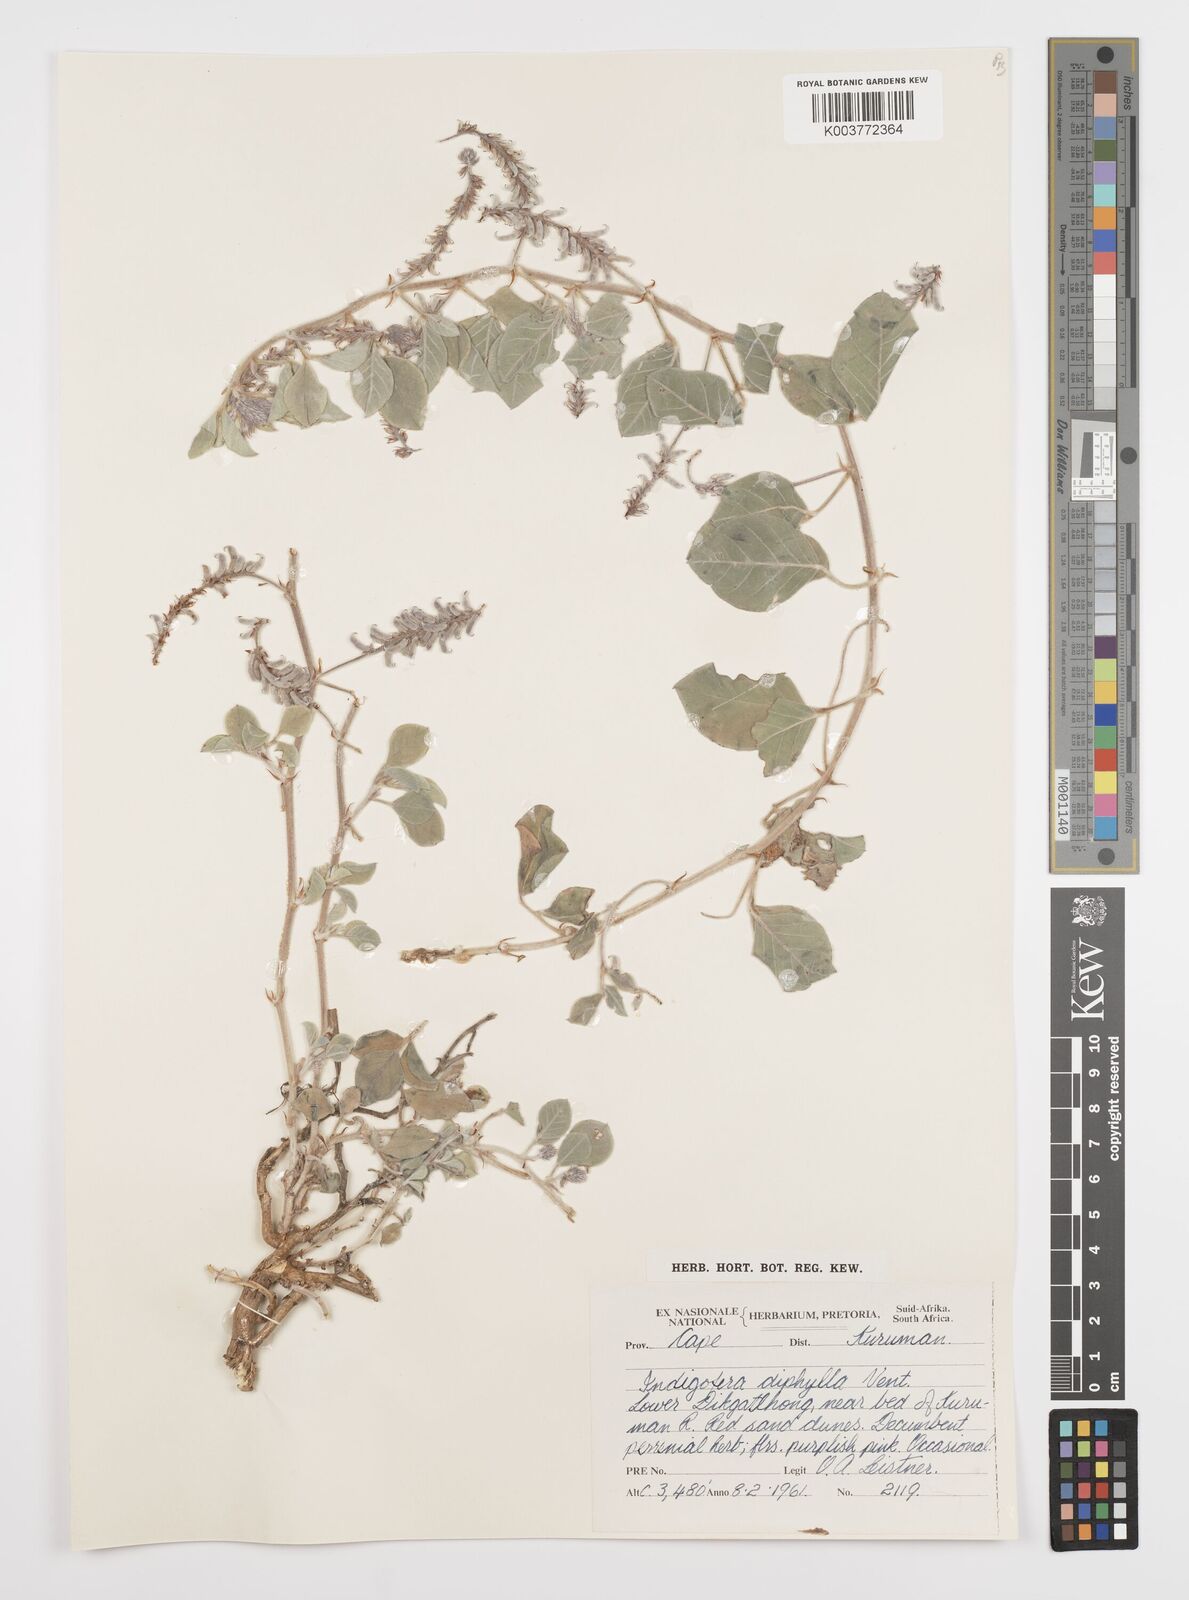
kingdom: Plantae
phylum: Tracheophyta
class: Magnoliopsida
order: Fabales
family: Fabaceae
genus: Indigofera
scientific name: Indigofera flavicans
